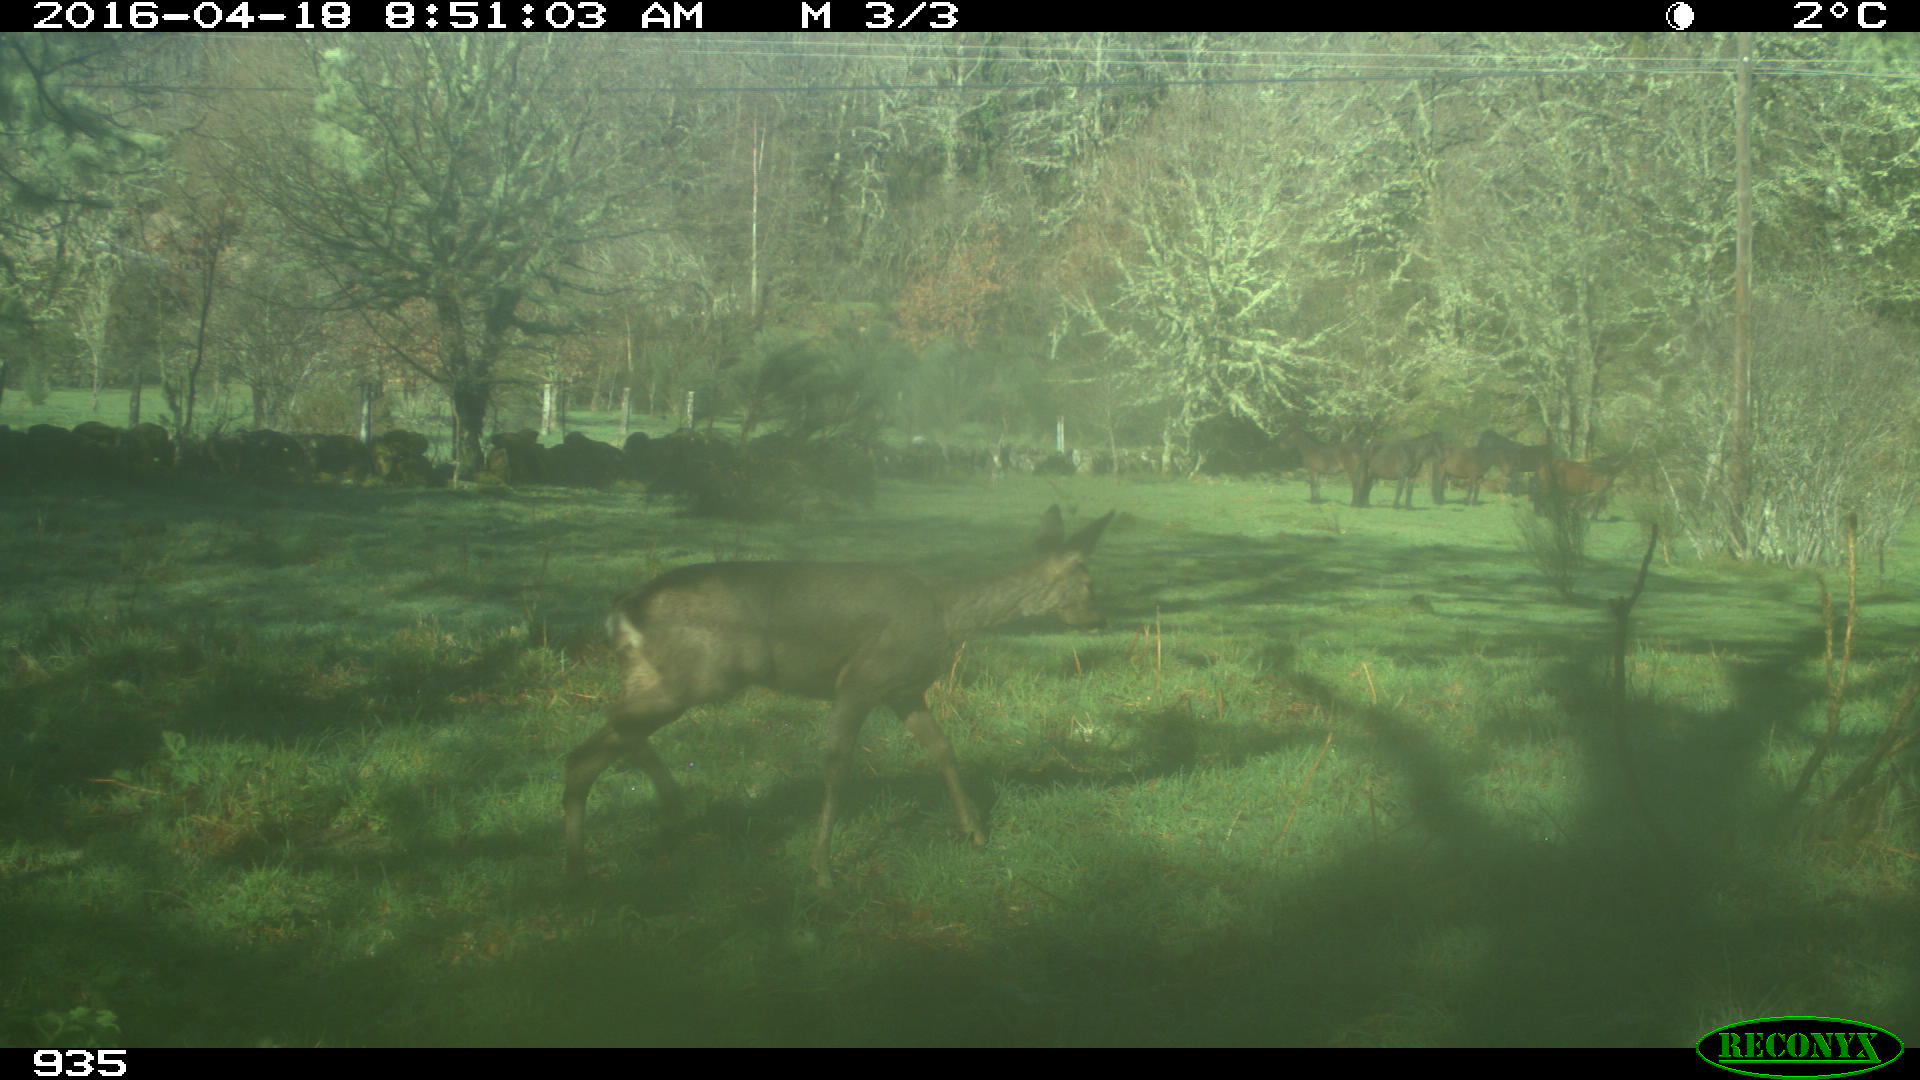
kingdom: Animalia
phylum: Chordata
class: Mammalia
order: Artiodactyla
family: Cervidae
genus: Capreolus
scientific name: Capreolus capreolus
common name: Western roe deer
